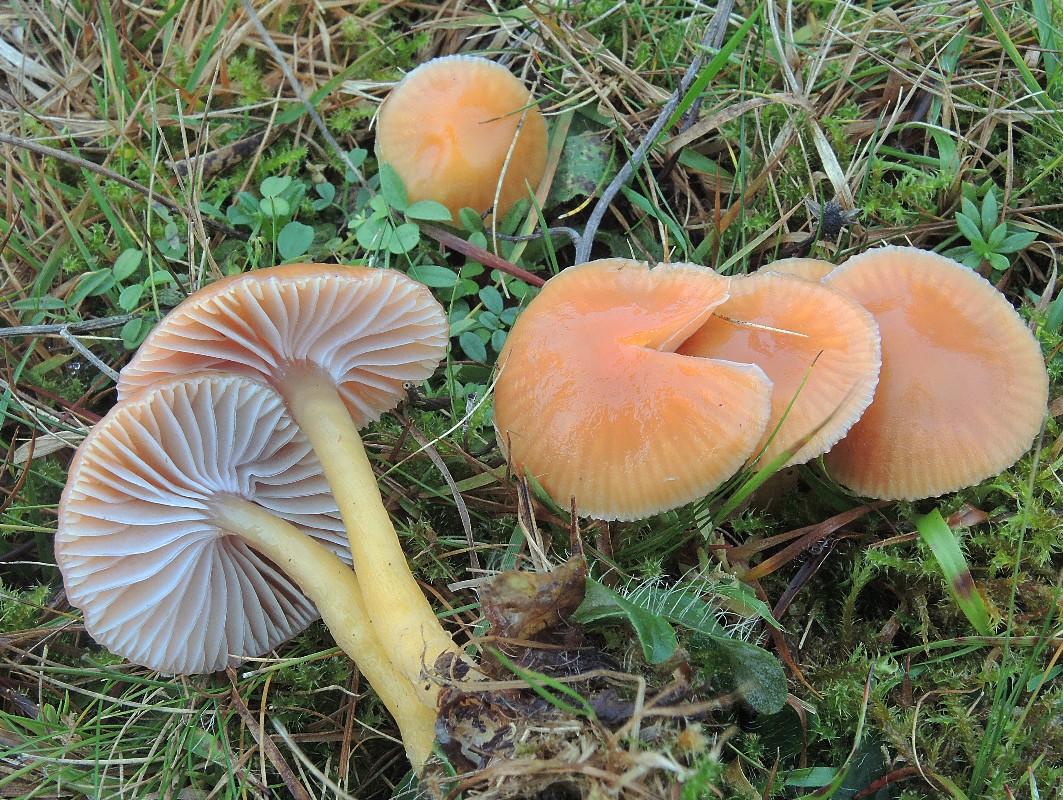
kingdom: Fungi
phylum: Basidiomycota
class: Agaricomycetes
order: Agaricales
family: Hygrophoraceae
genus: Gliophorus
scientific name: Gliophorus laetus
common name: brusk-vokshat
